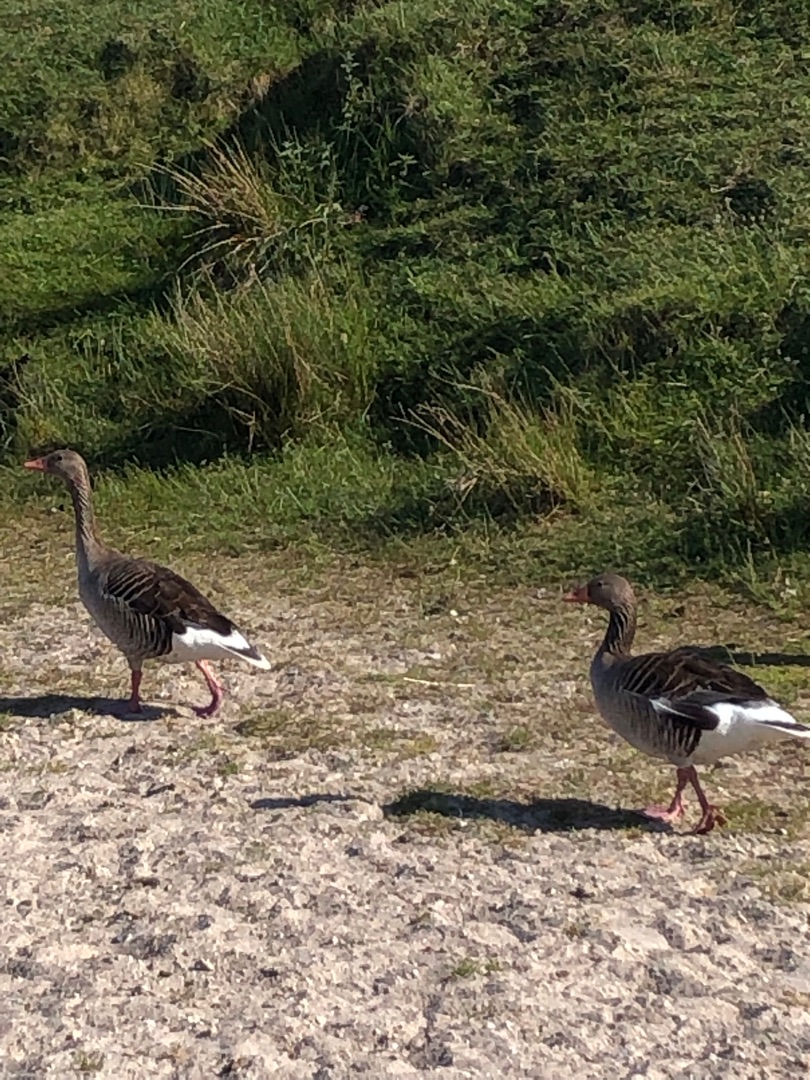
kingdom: Animalia
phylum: Chordata
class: Aves
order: Anseriformes
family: Anatidae
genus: Anser
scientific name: Anser anser
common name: Grågås
